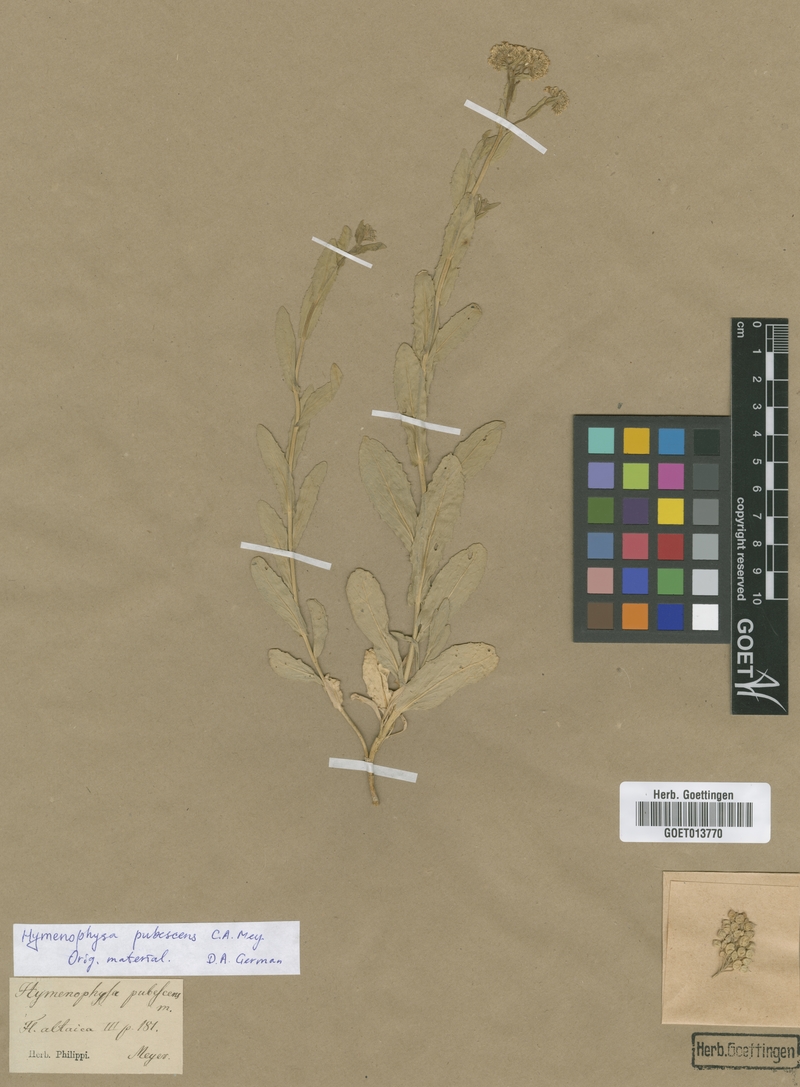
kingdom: Plantae
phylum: Tracheophyta
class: Magnoliopsida
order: Brassicales
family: Brassicaceae
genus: Lepidium
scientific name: Lepidium appelianum
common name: Hairy whitetop
